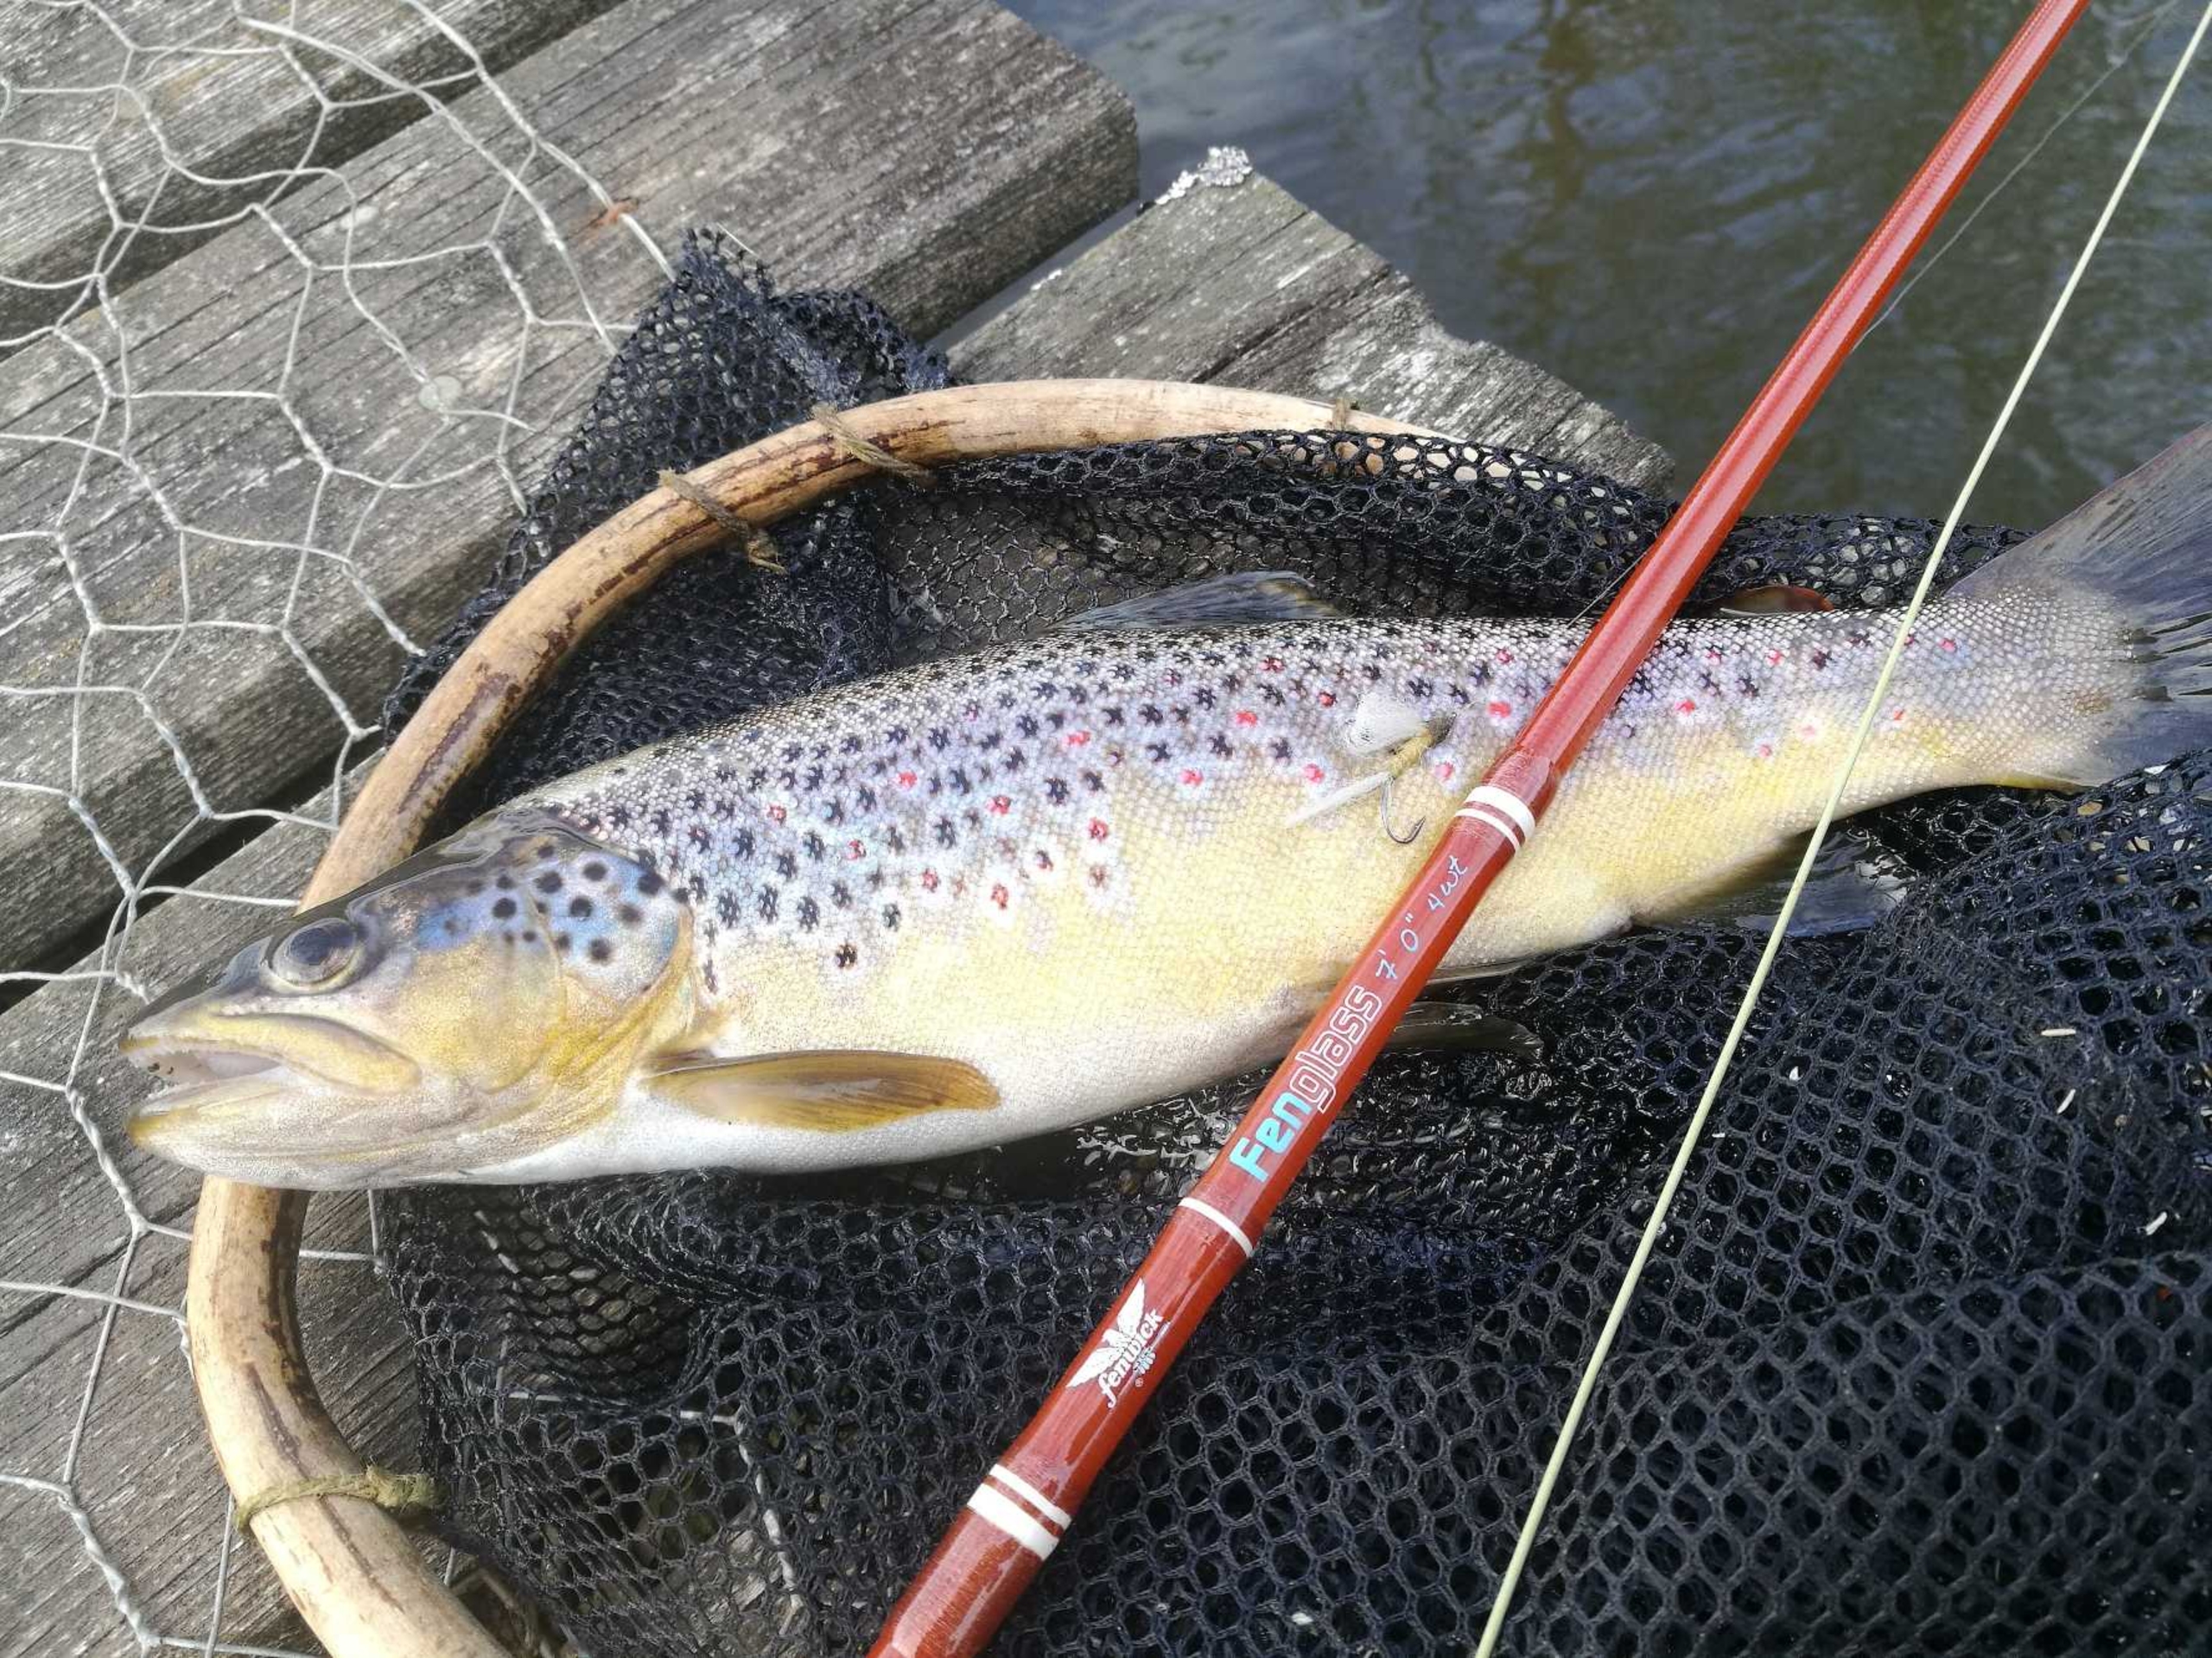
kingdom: Animalia
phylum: Chordata
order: Salmoniformes
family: Salmonidae
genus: Salmo
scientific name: Salmo trutta
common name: Ørred
